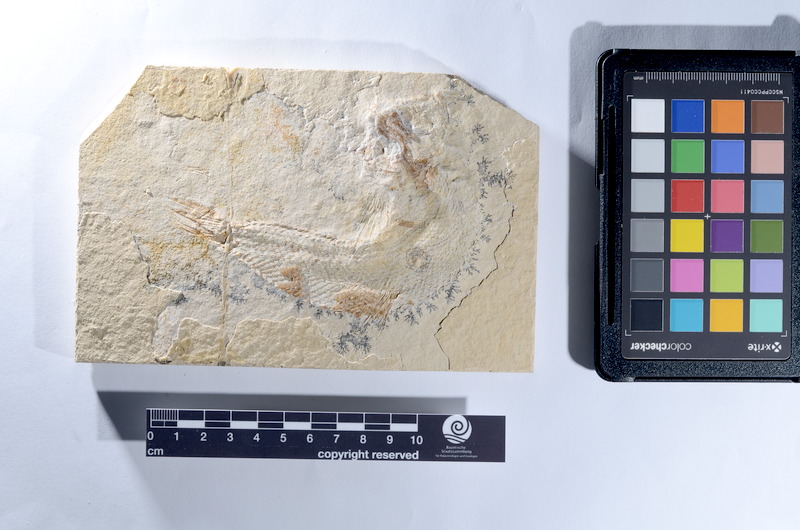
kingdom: Animalia
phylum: Chordata
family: Pholidophoridae
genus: Pholidophorus
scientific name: Pholidophorus
